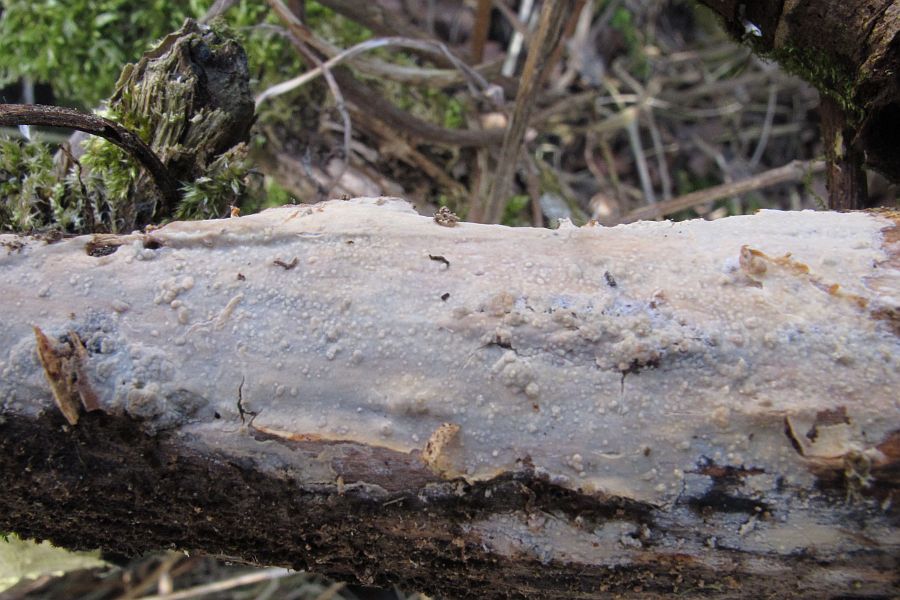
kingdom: Fungi
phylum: Basidiomycota
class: Agaricomycetes
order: Russulales
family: Stereaceae
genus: Gloeocystidiellum
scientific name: Gloeocystidiellum porosum
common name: mælkehvid olieskind
